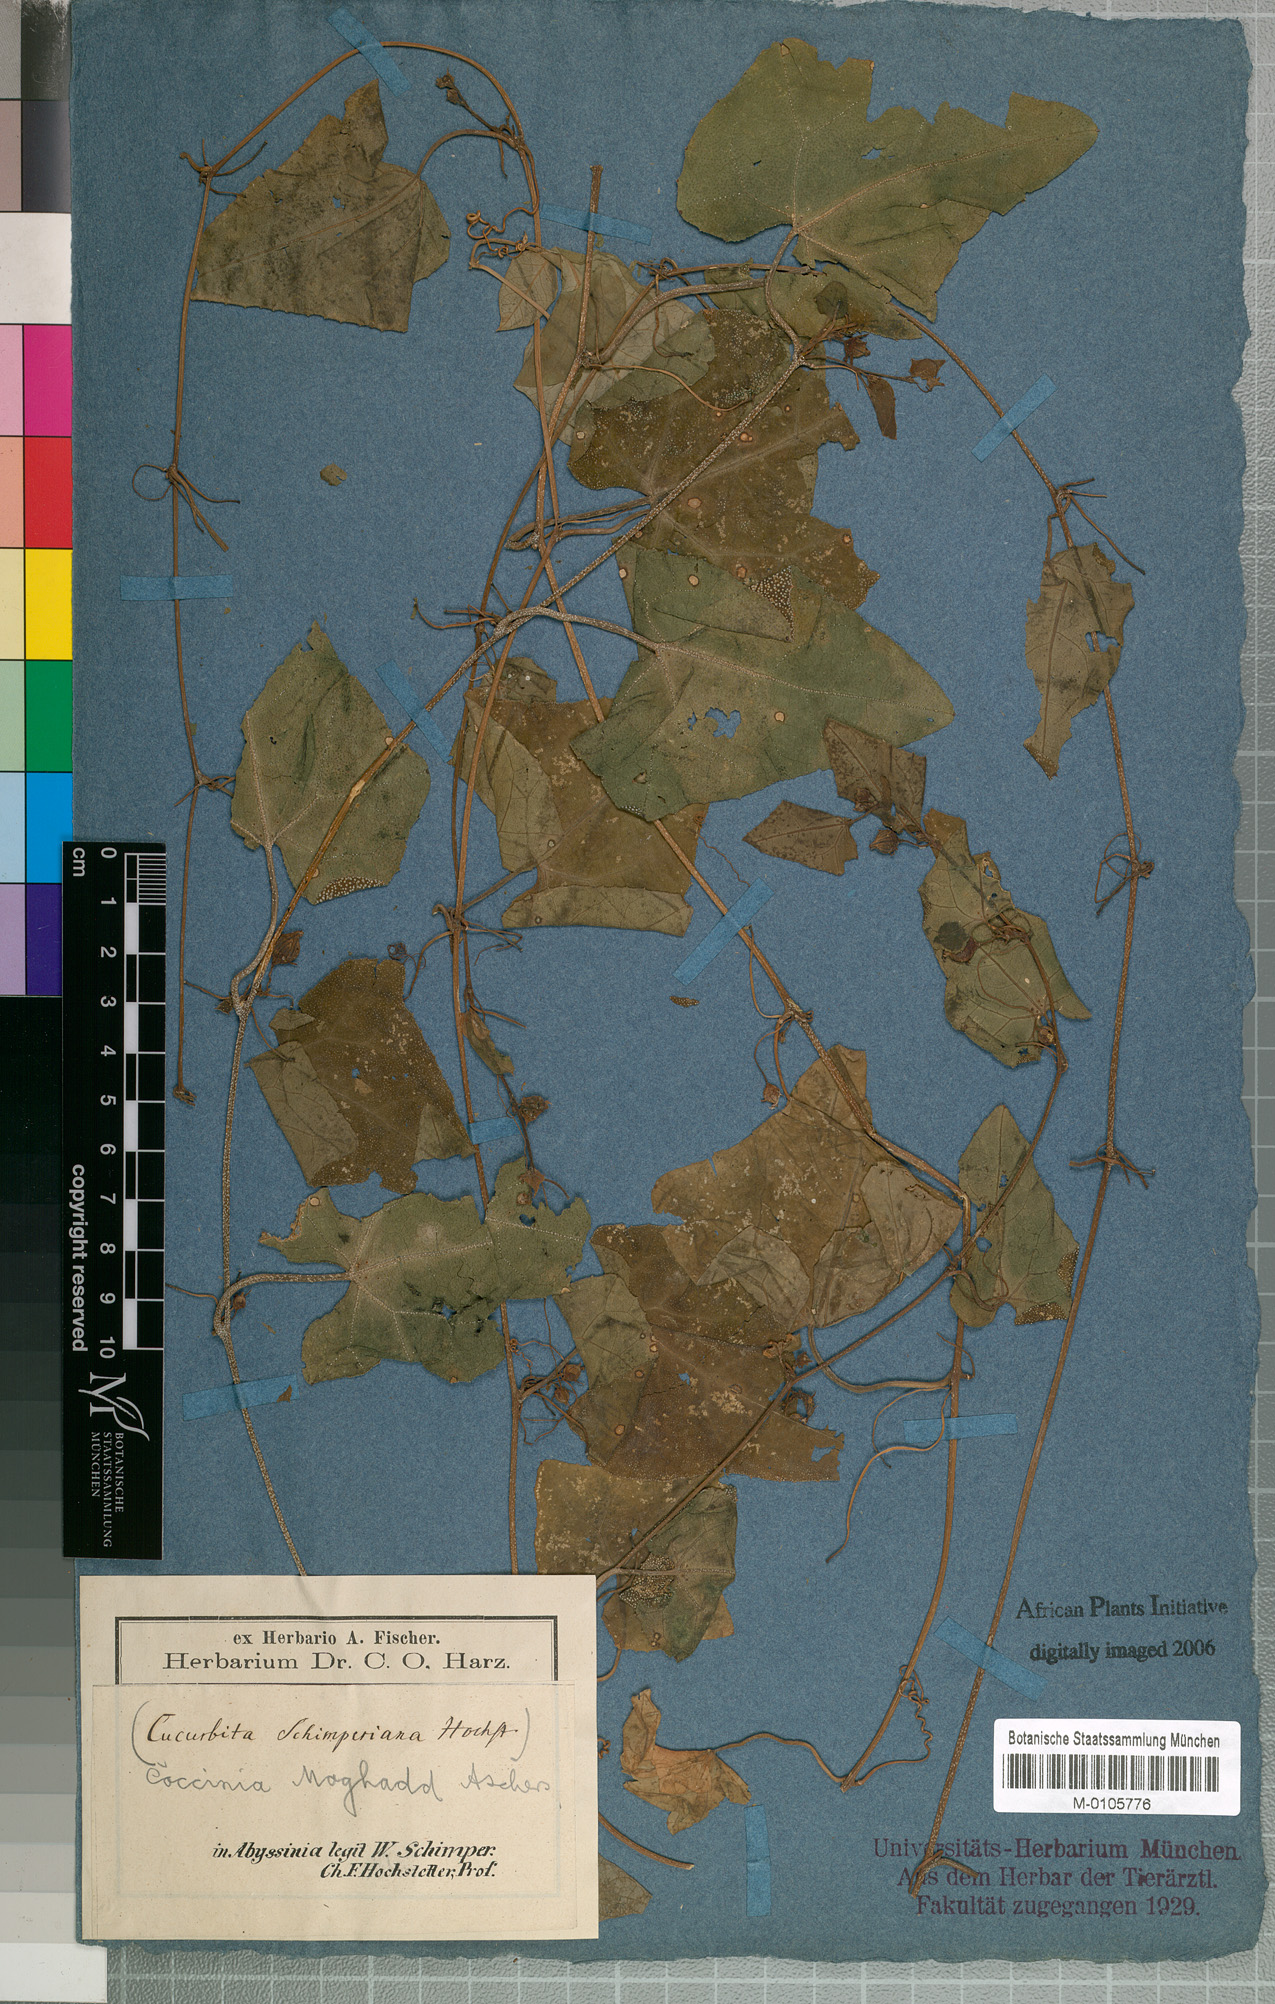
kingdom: Plantae
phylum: Tracheophyta
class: Magnoliopsida
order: Cucurbitales
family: Cucurbitaceae
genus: Coccinia
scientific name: Coccinia grandis
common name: Ivy gourd
